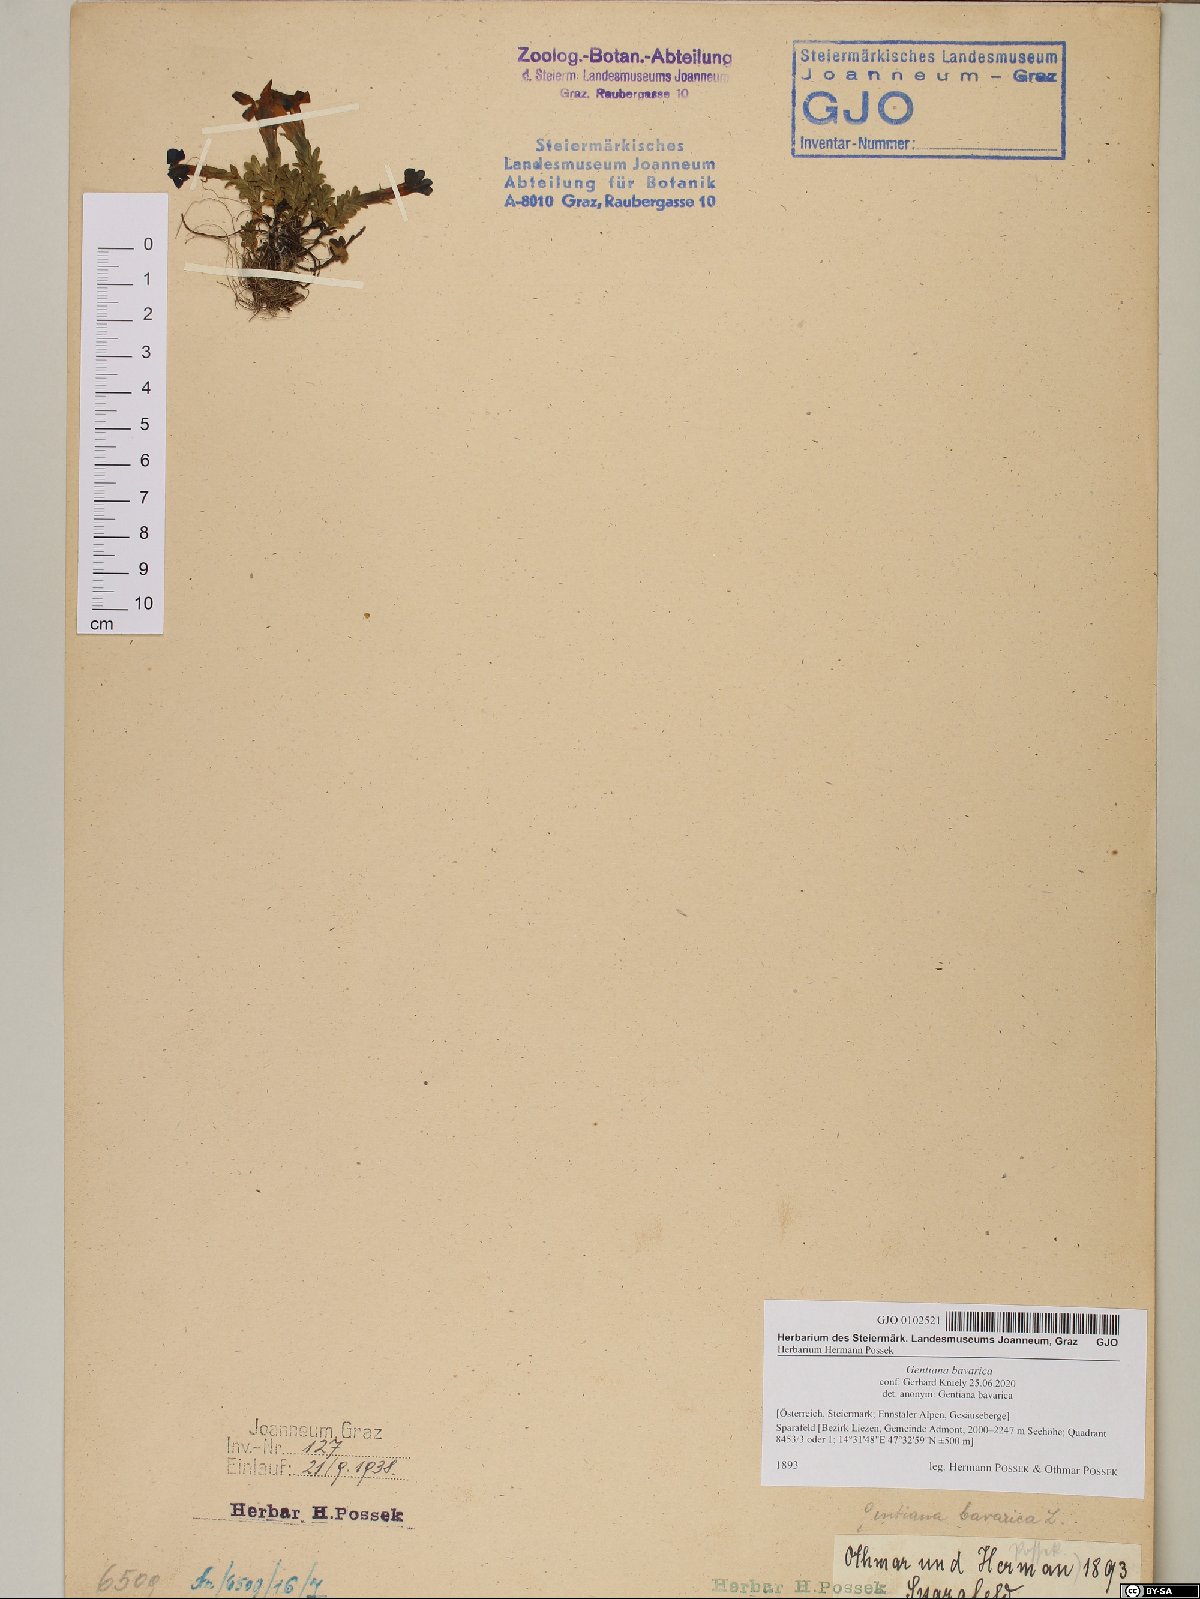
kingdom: Plantae
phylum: Tracheophyta
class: Magnoliopsida
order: Gentianales
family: Gentianaceae
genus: Gentiana
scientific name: Gentiana bavarica
